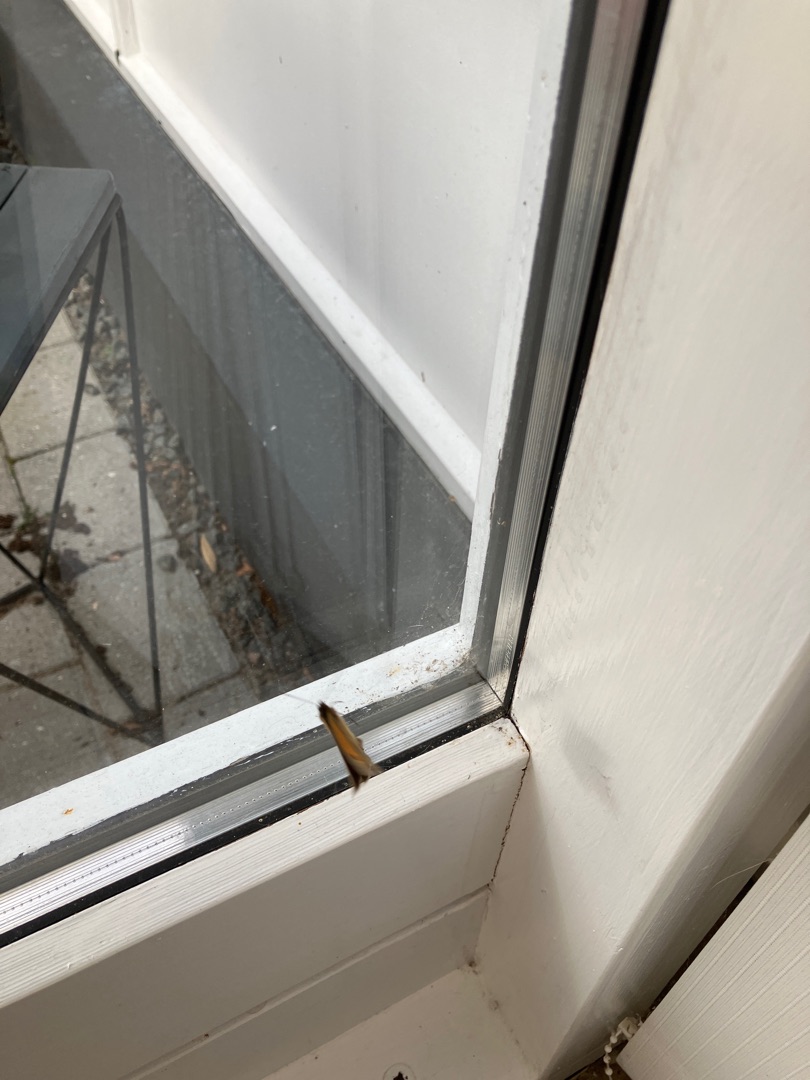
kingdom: Animalia
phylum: Arthropoda
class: Insecta
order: Lepidoptera
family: Nymphalidae
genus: Maniola
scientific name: Maniola jurtina
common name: Græsrandøje
